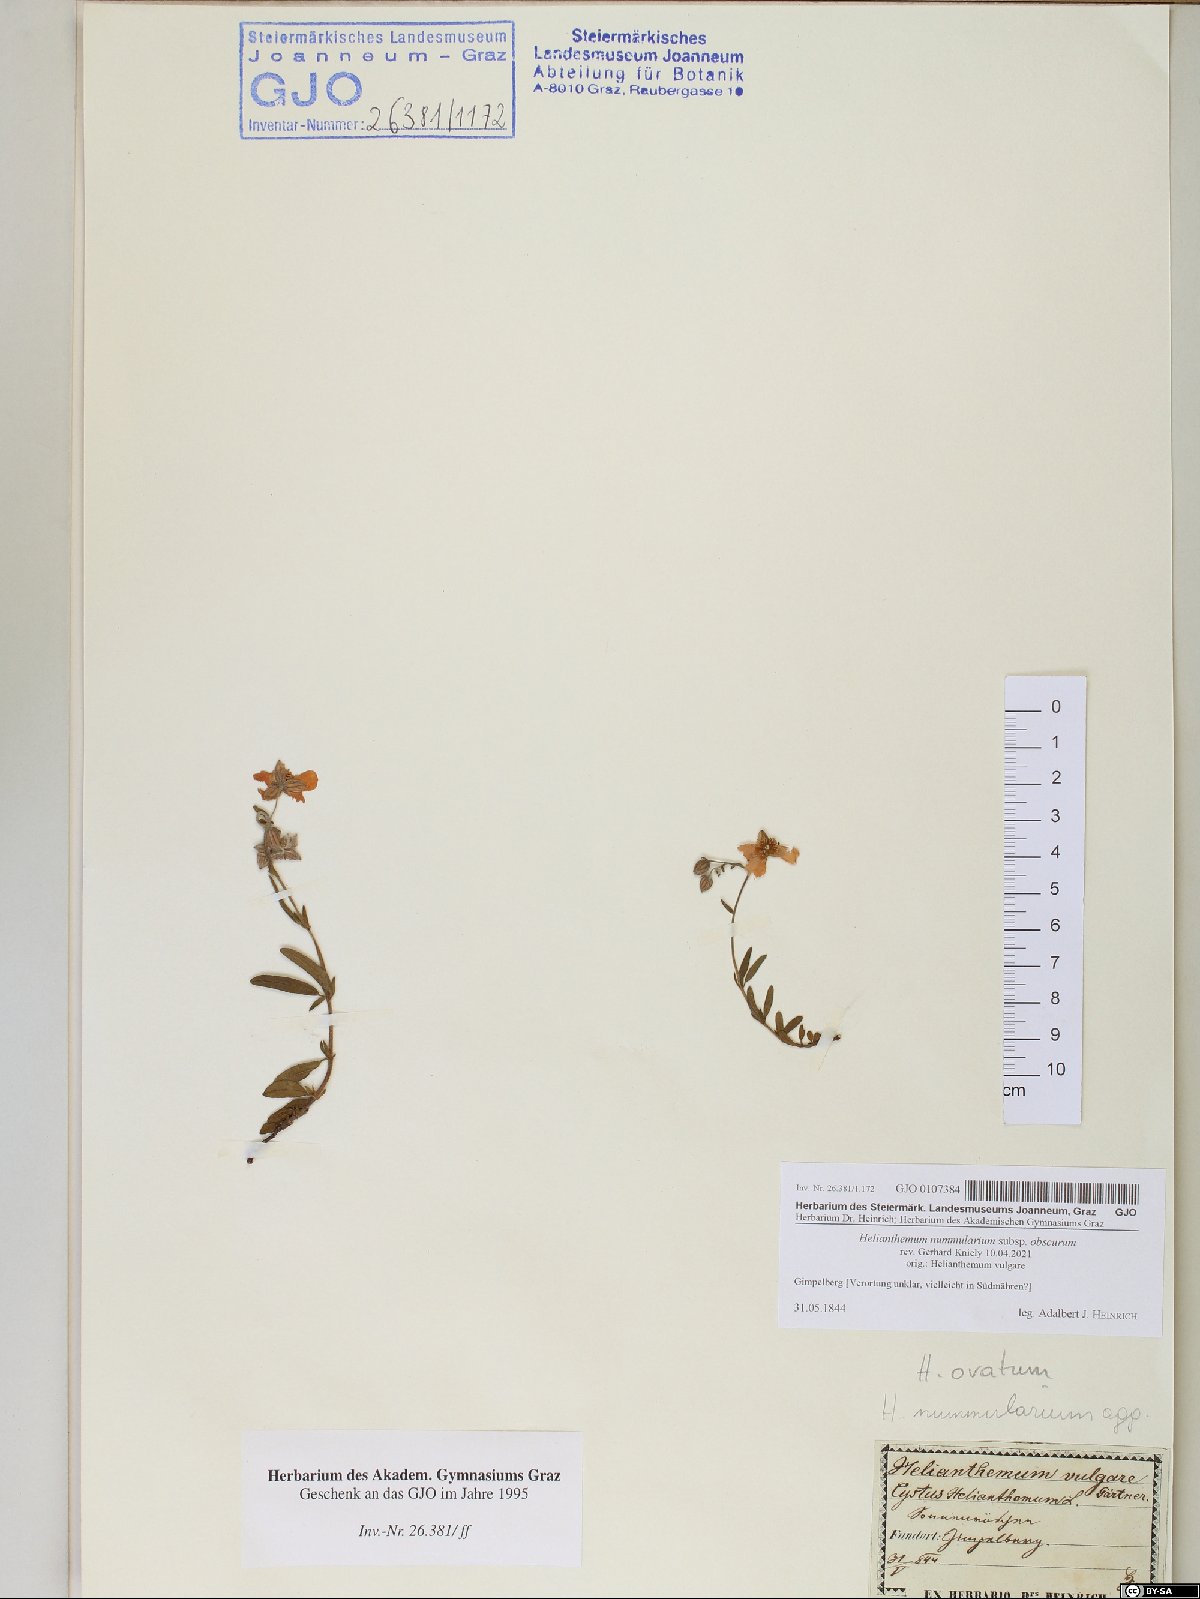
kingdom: Plantae
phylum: Tracheophyta
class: Magnoliopsida
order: Malvales
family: Cistaceae
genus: Helianthemum
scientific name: Helianthemum nummularium
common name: Common rock-rose
